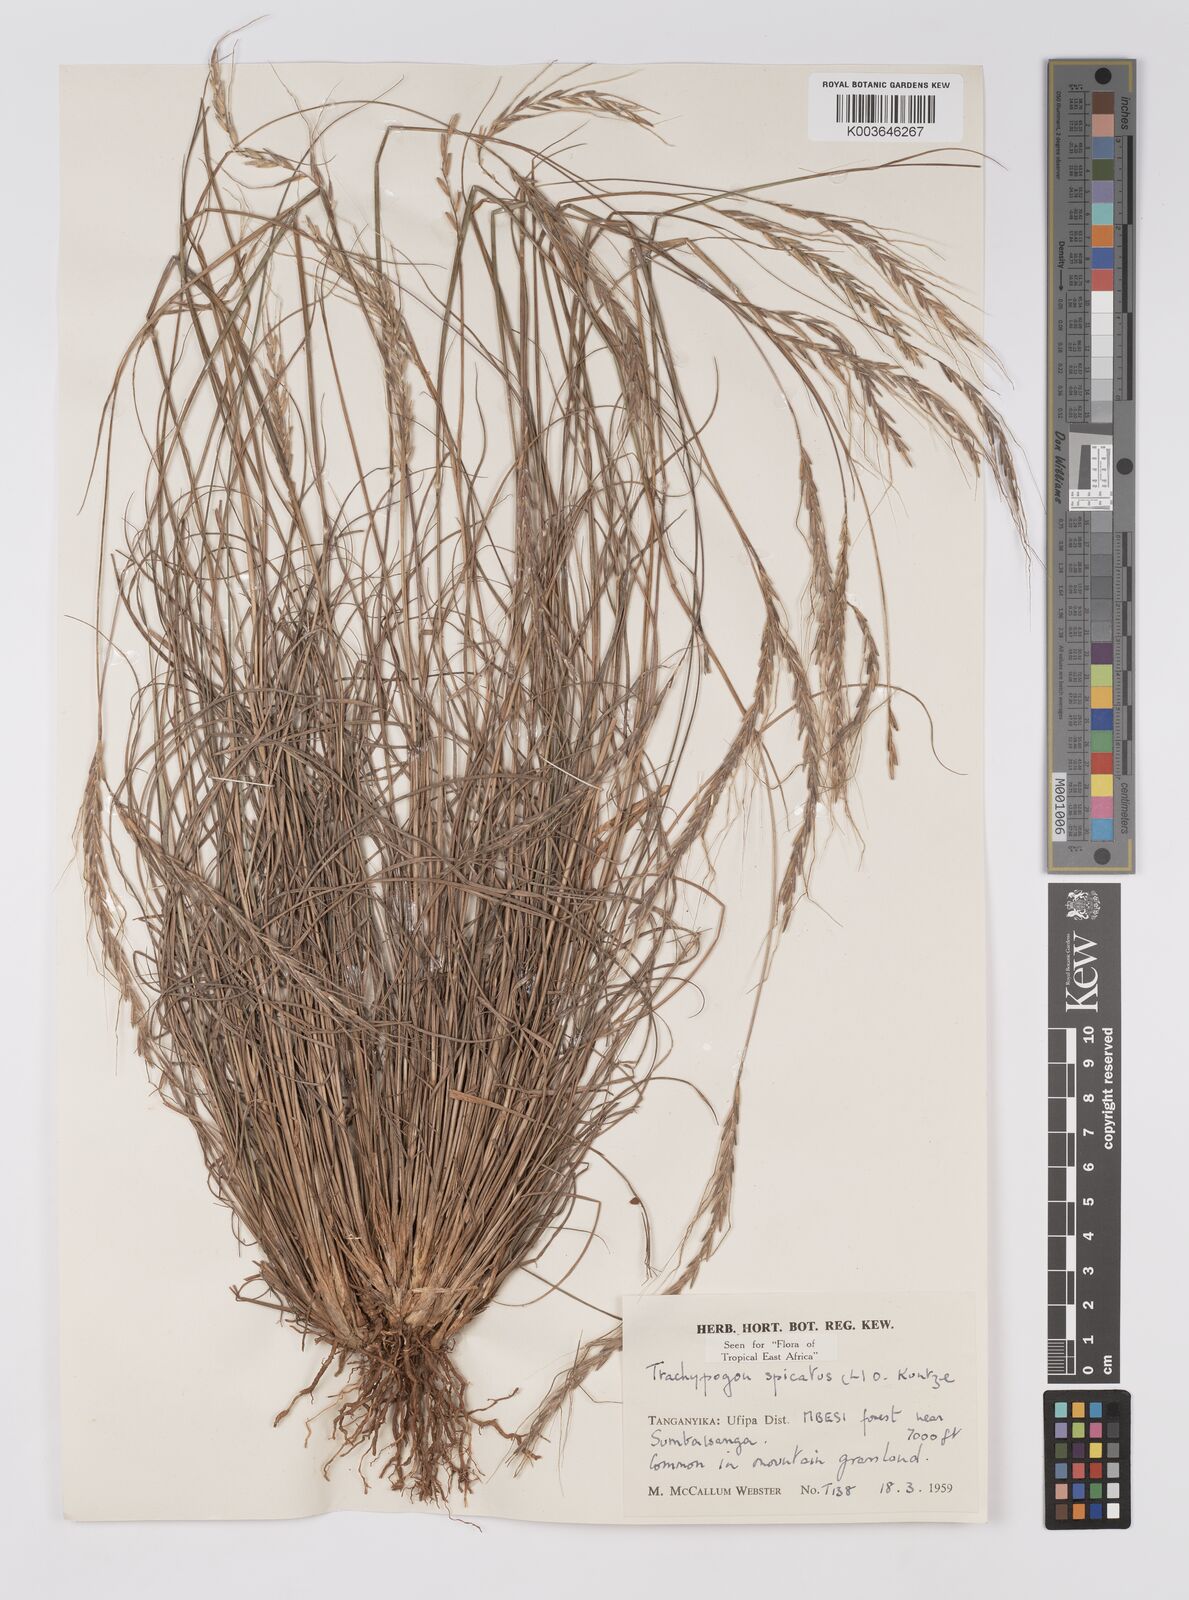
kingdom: Plantae
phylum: Tracheophyta
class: Liliopsida
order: Poales
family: Poaceae
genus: Trachypogon
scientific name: Trachypogon spicatus
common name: Crinkle-awn
